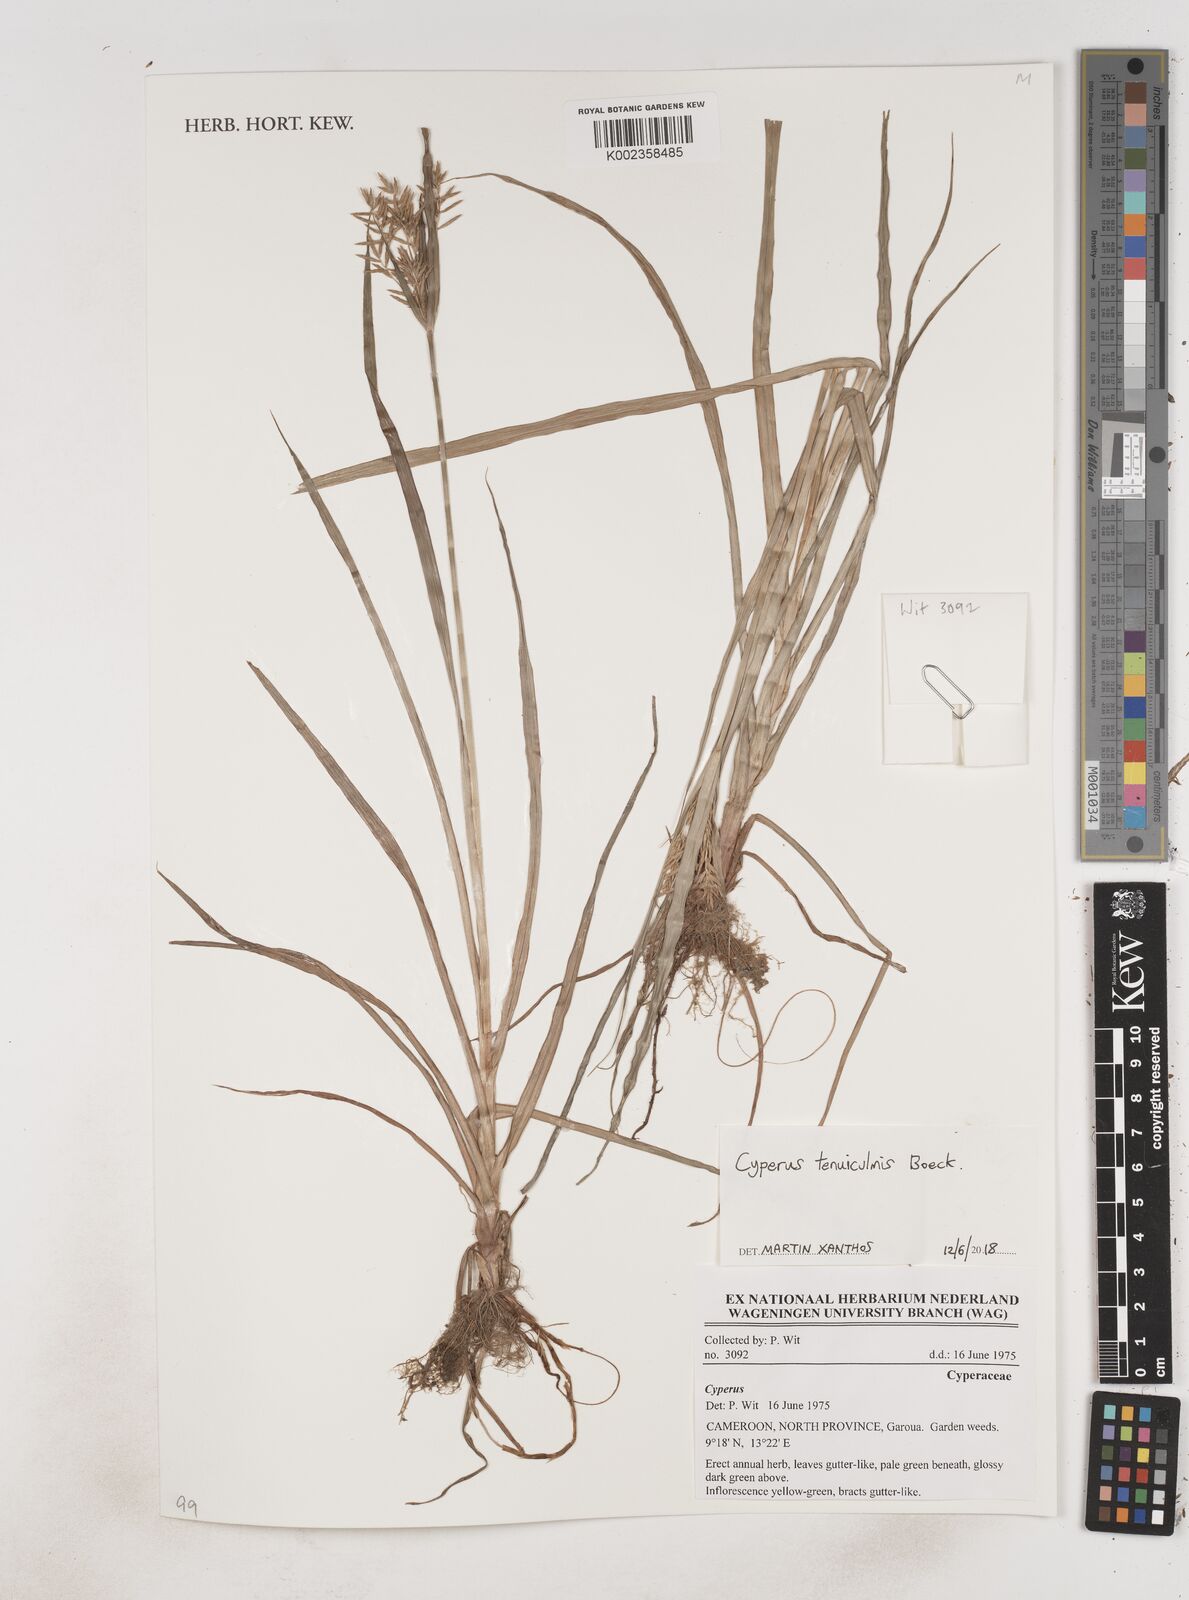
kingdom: Plantae
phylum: Tracheophyta
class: Liliopsida
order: Poales
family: Cyperaceae
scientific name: Cyperaceae
